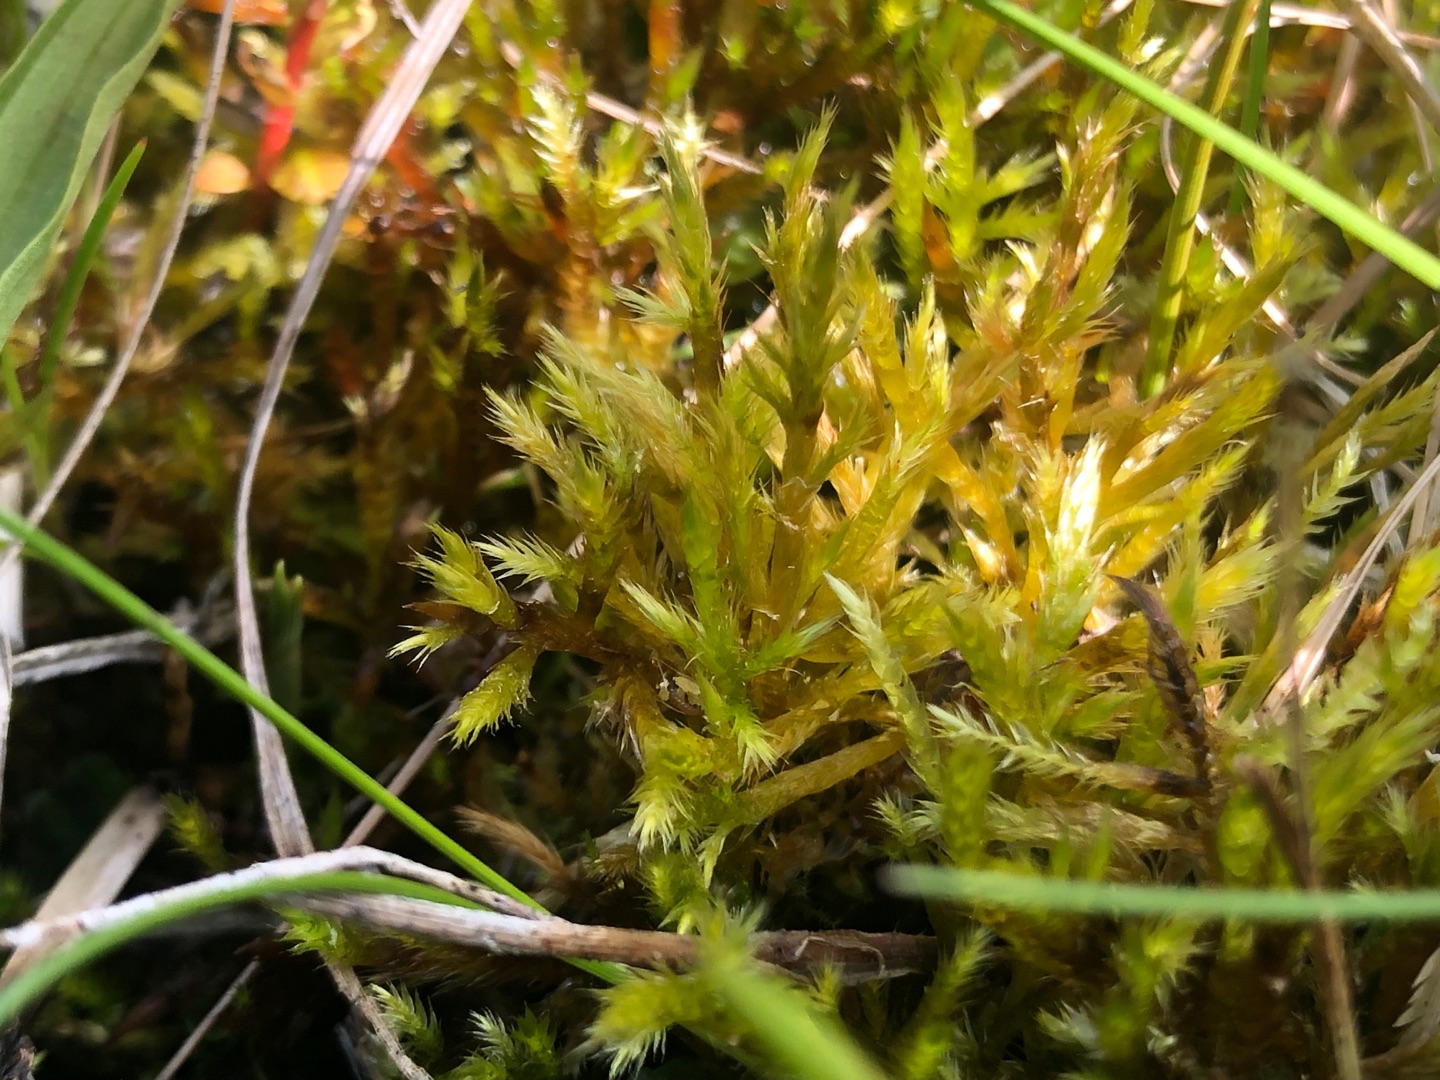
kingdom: Plantae
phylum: Bryophyta
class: Bryopsida
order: Hypnales
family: Amblystegiaceae
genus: Tomentypnum
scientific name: Tomentypnum nitens
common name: Glinsende kærmos
